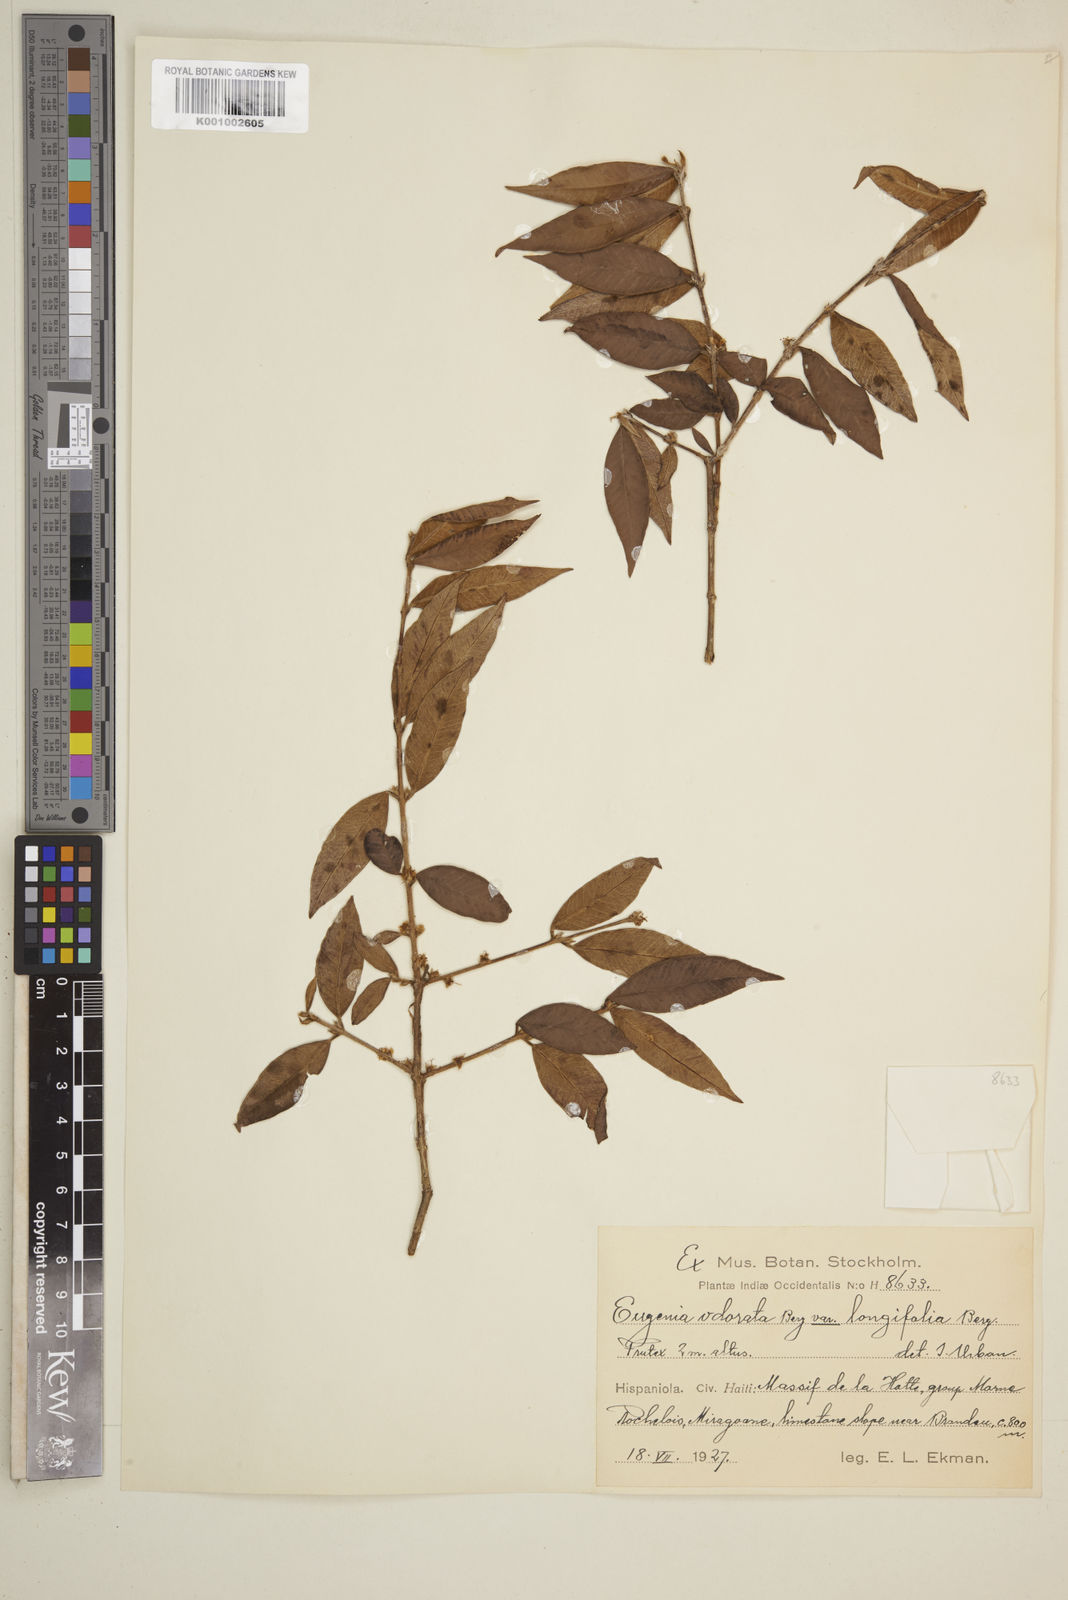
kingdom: Plantae
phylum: Tracheophyta
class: Magnoliopsida
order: Myrtales
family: Myrtaceae
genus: Syzygium
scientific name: Syzygium brachiatum
